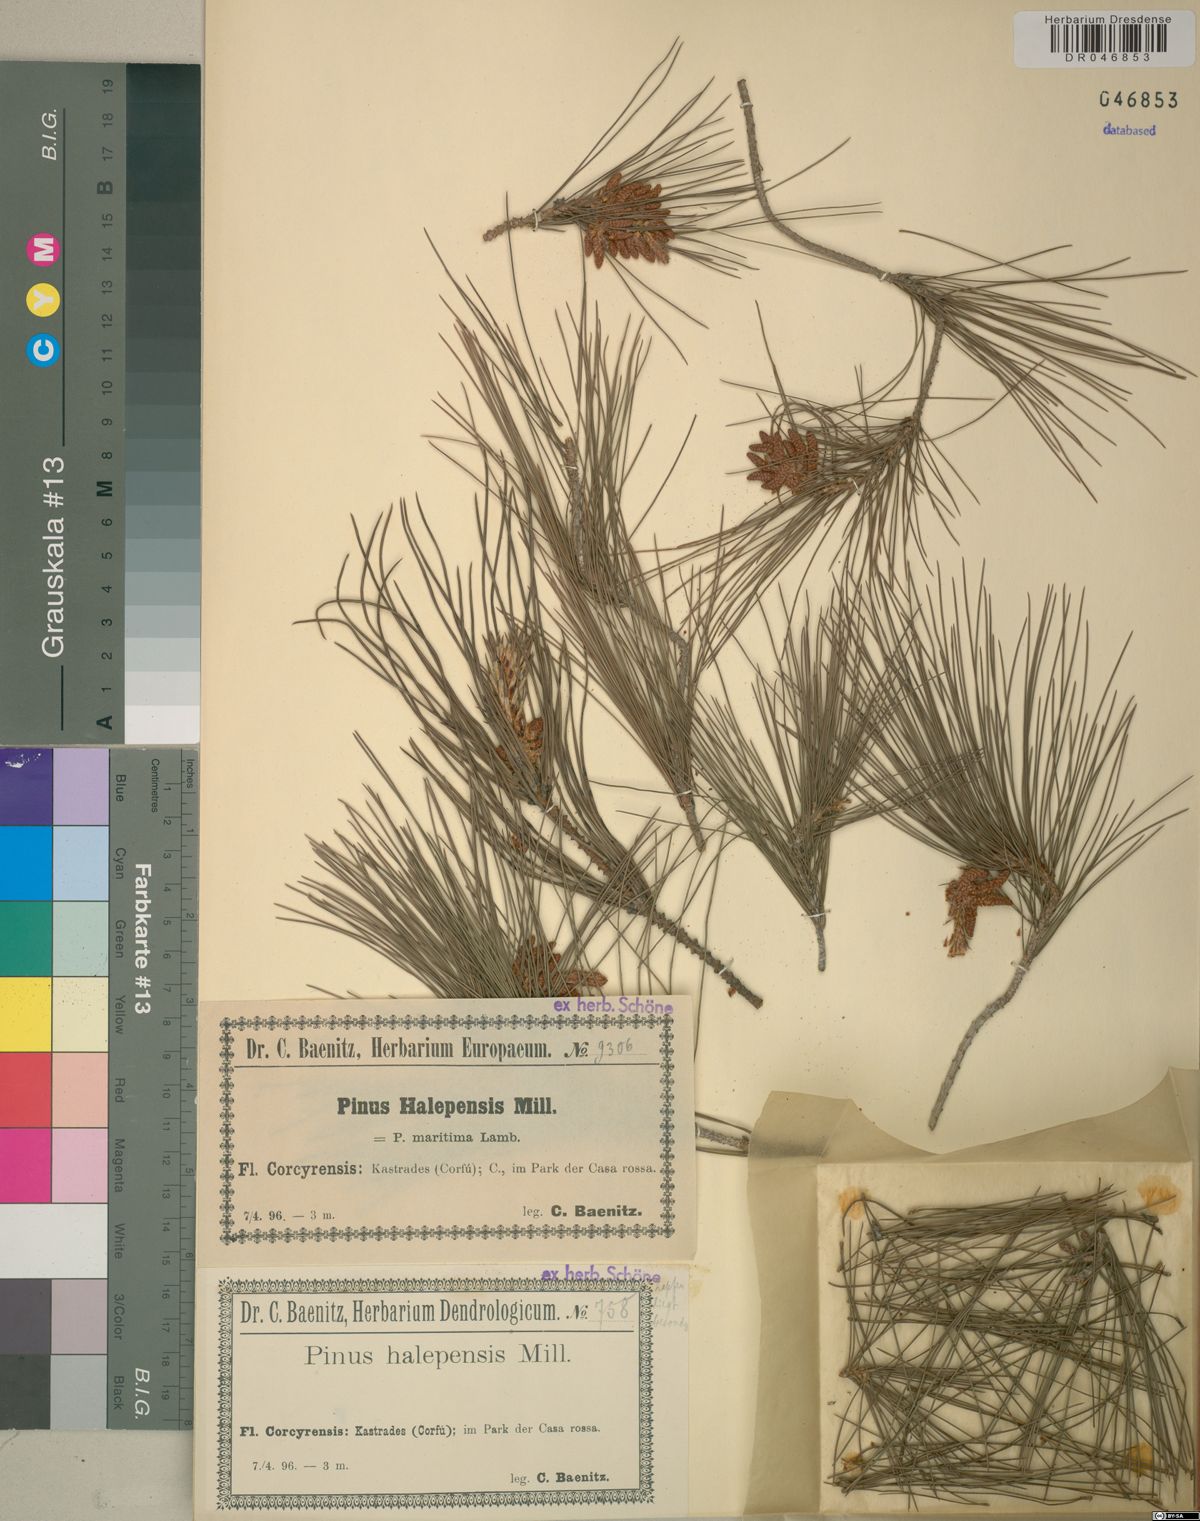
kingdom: Plantae
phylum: Tracheophyta
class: Pinopsida
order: Pinales
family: Pinaceae
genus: Pinus
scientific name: Pinus halepensis
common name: Aleppo pine
